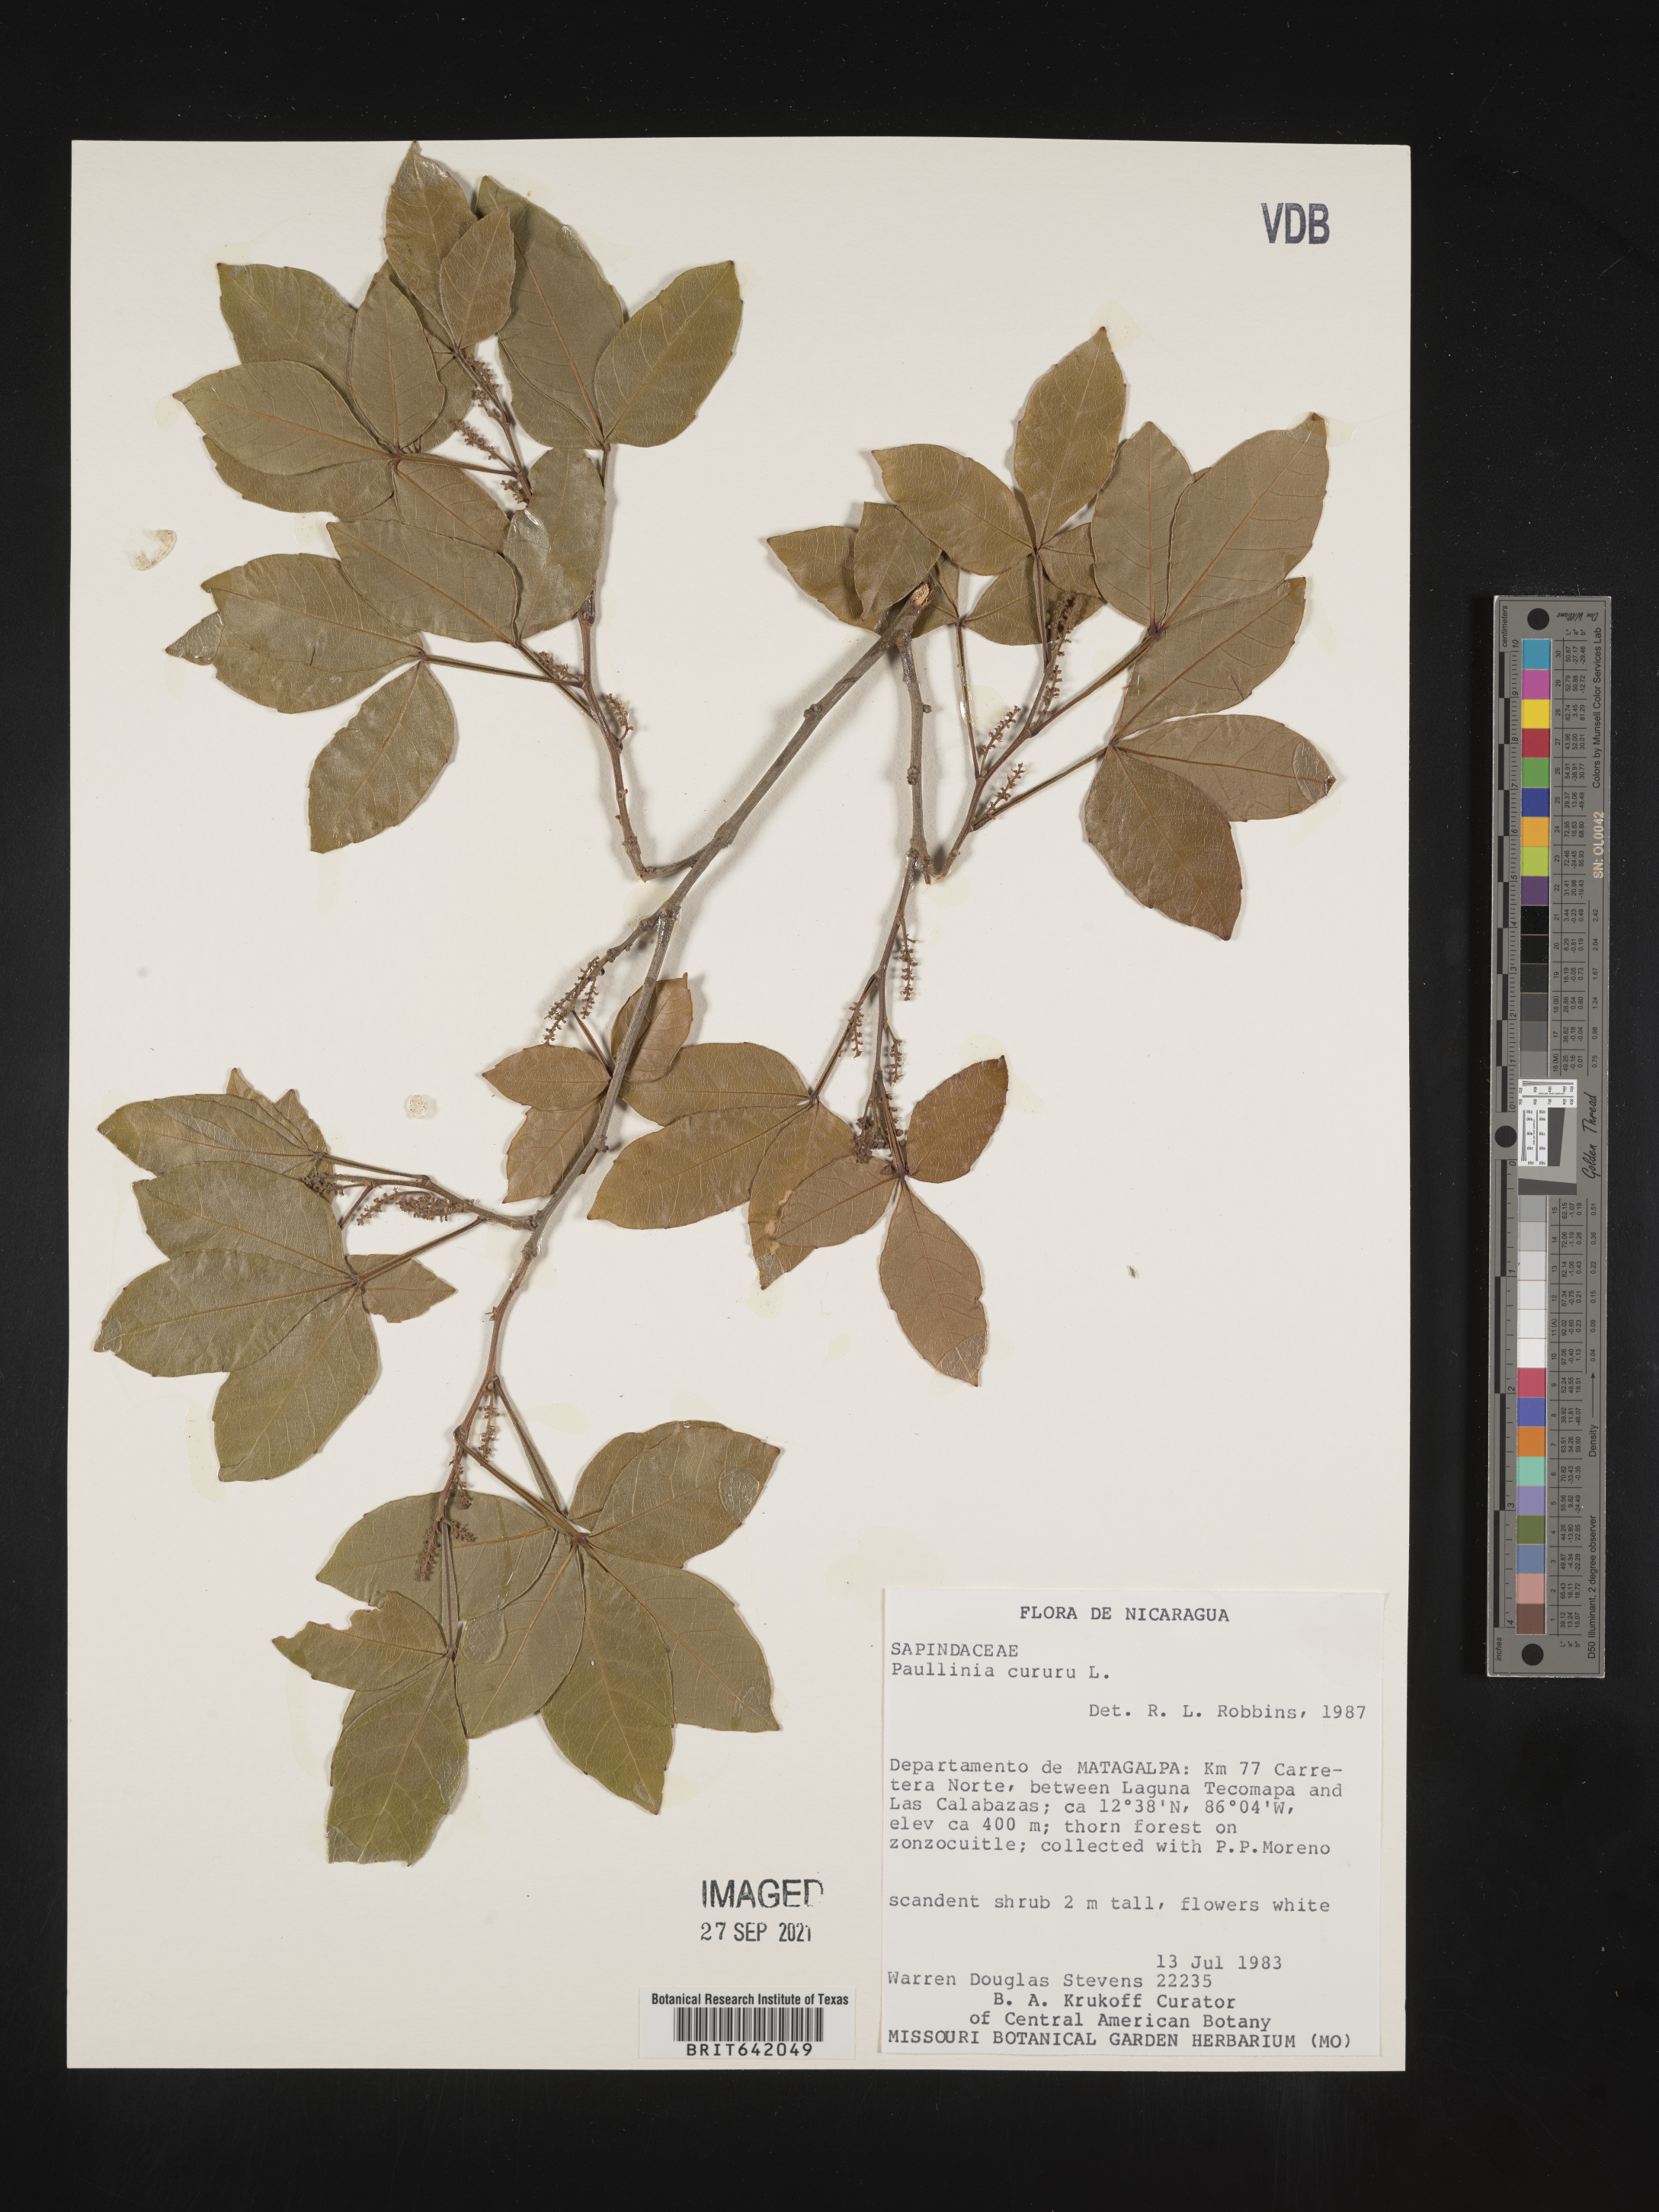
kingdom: Plantae
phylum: Tracheophyta
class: Magnoliopsida
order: Sapindales
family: Sapindaceae
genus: Paullinia
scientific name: Paullinia
